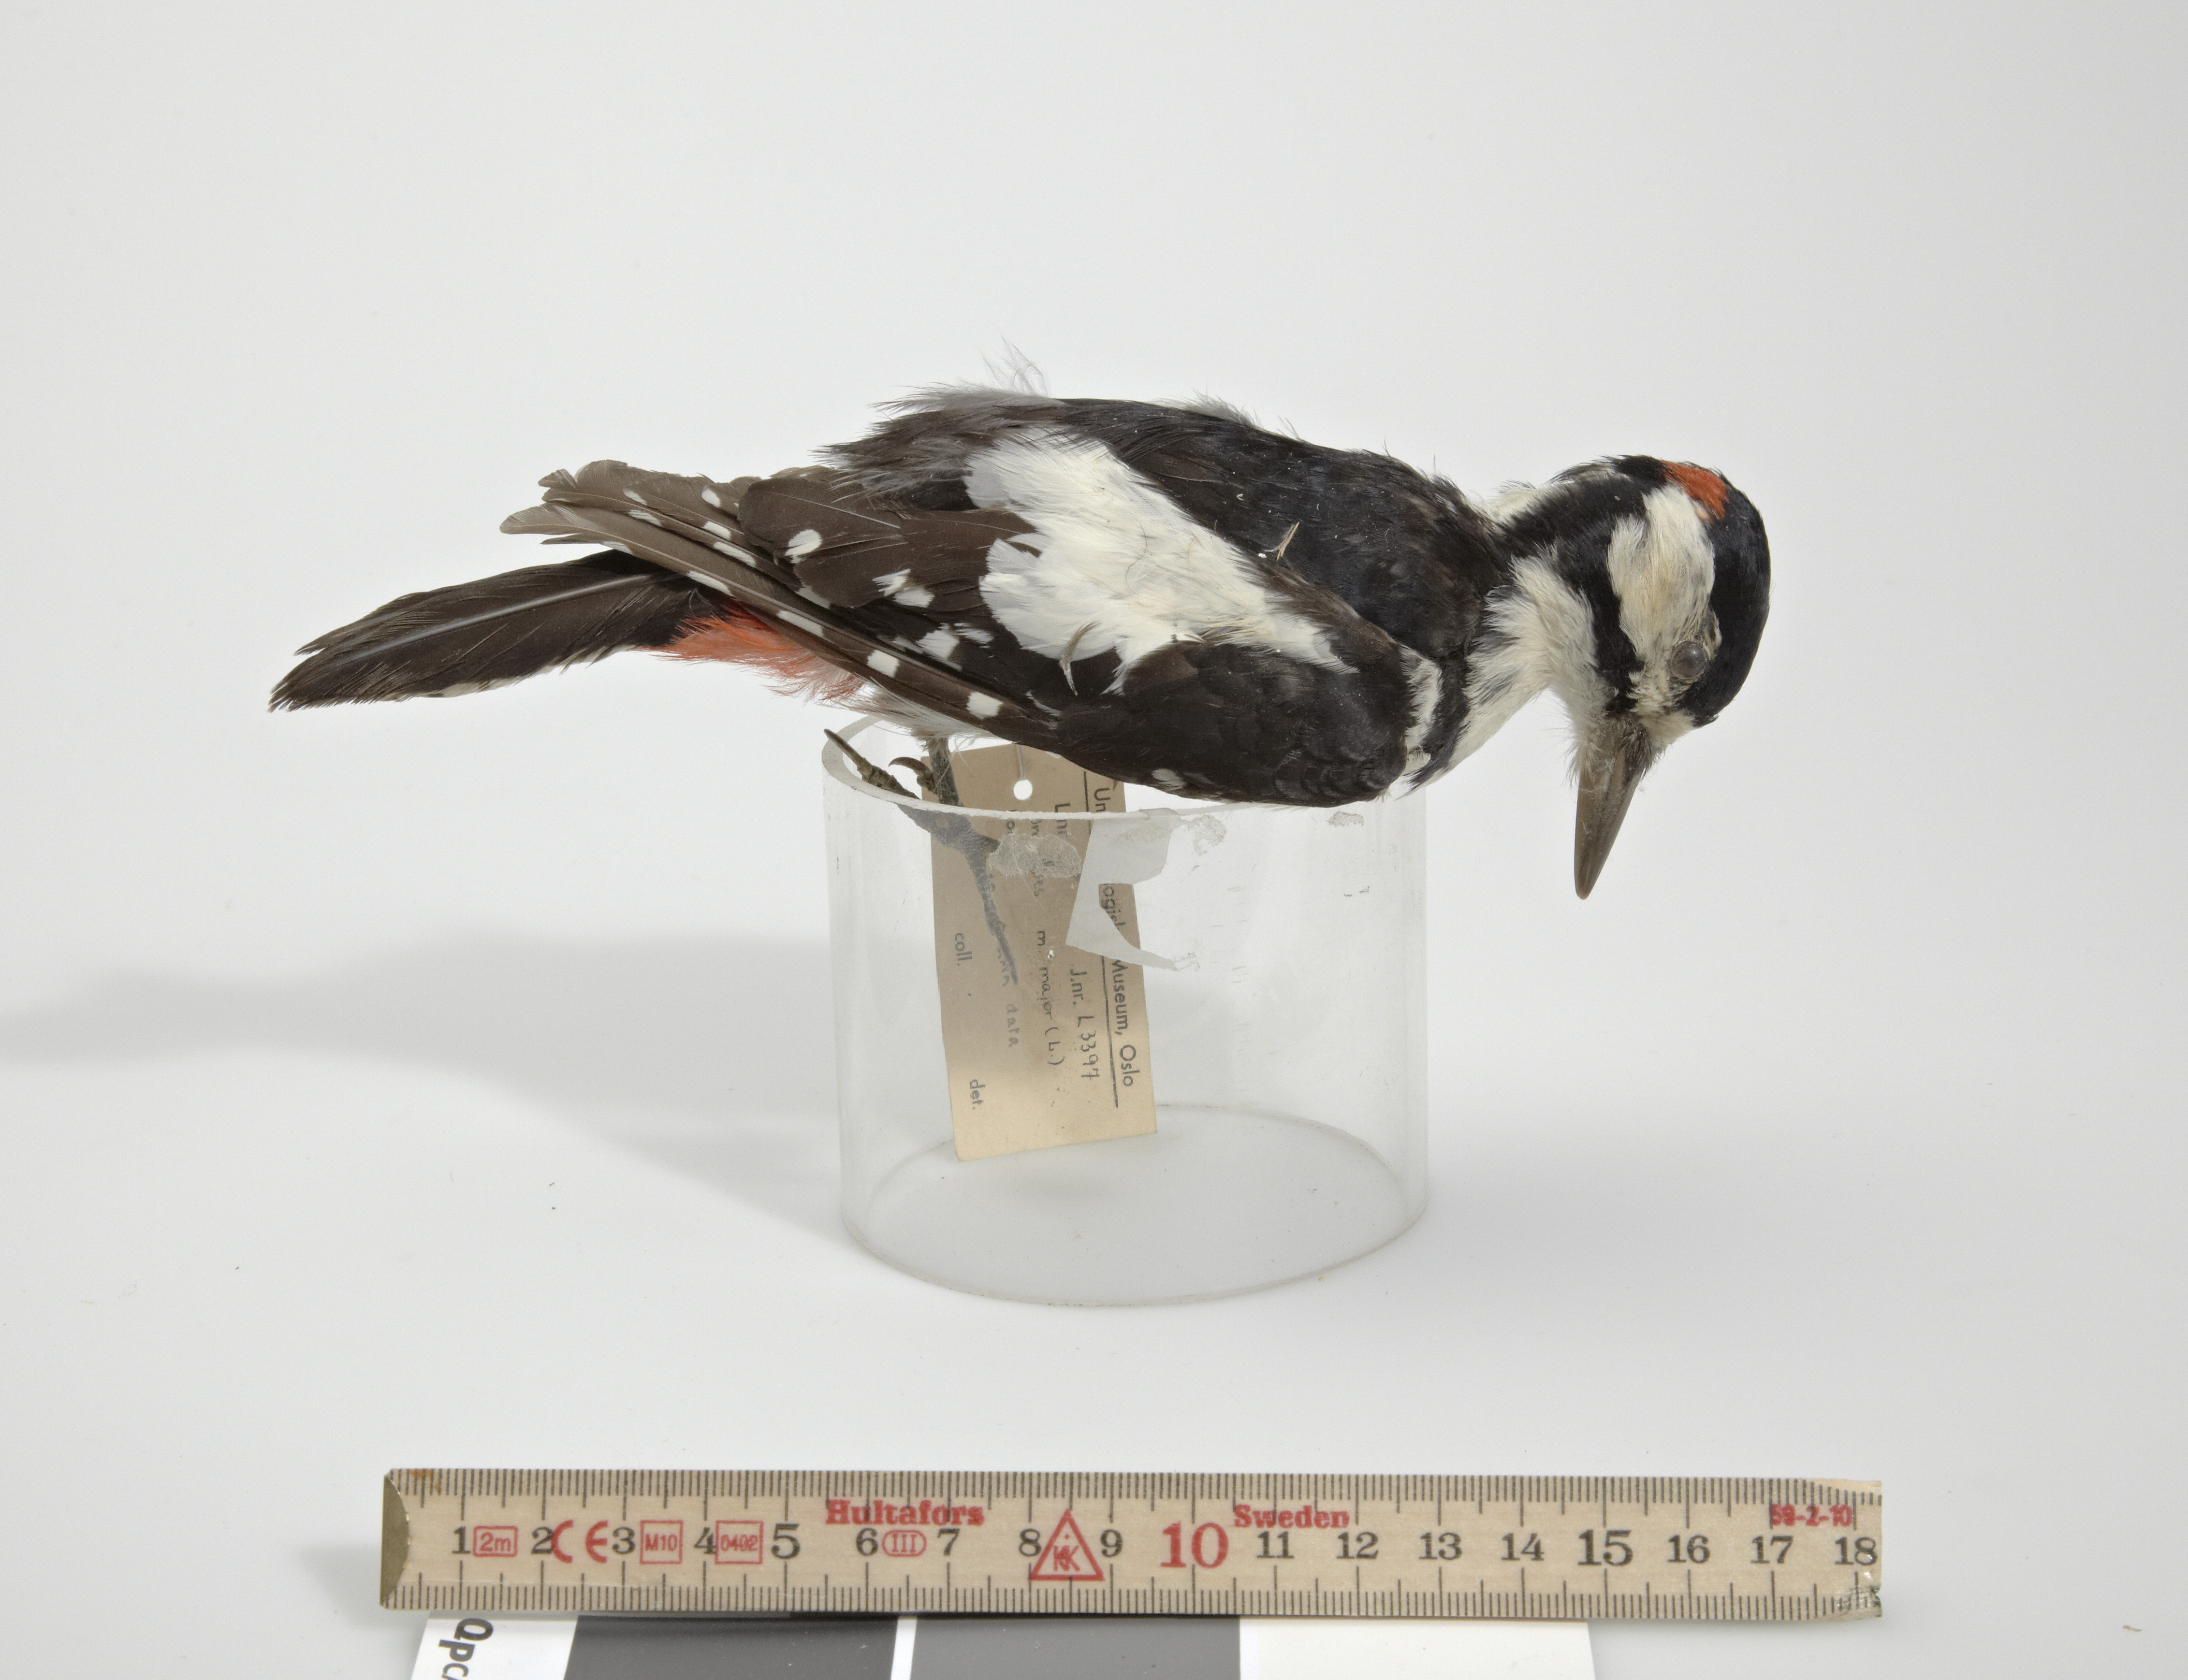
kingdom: Animalia
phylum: Chordata
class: Aves
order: Piciformes
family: Picidae
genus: Dendrocopos
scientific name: Dendrocopos major
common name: Great spotted woodpecker
